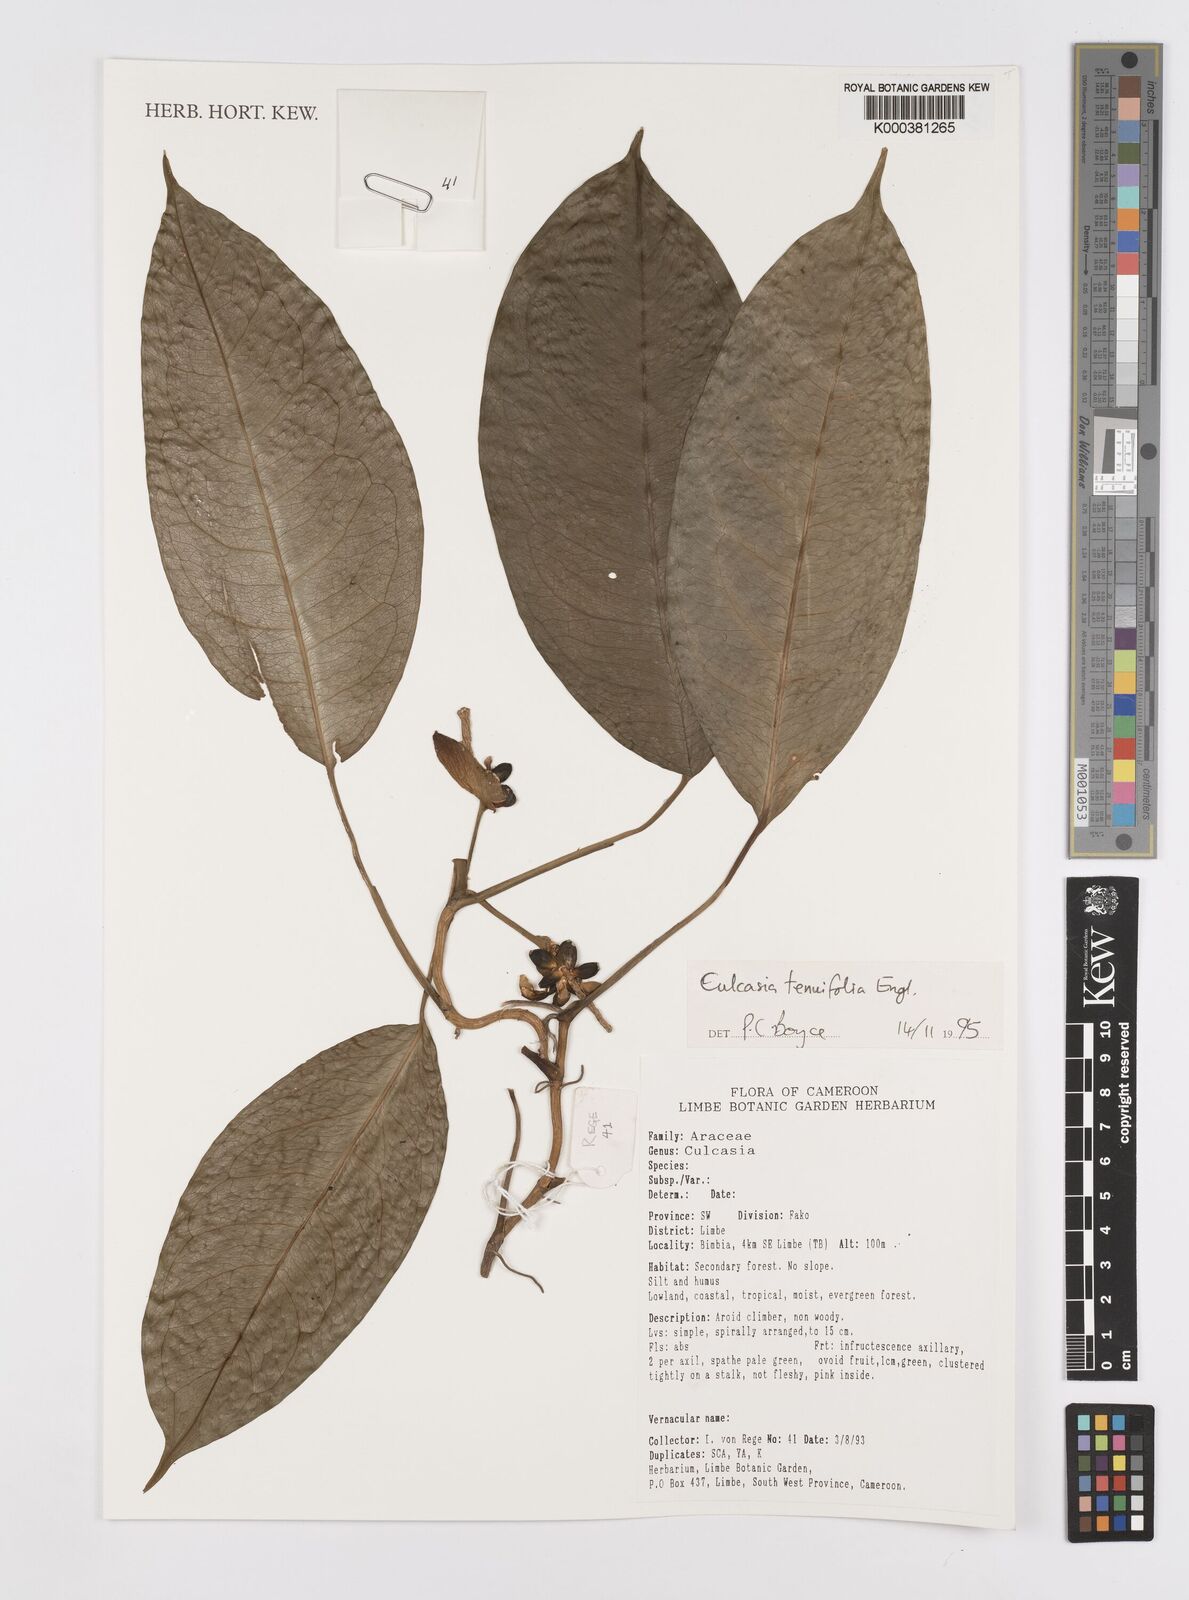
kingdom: Plantae
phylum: Tracheophyta
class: Liliopsida
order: Alismatales
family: Araceae
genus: Culcasia
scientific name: Culcasia tenuifolia
